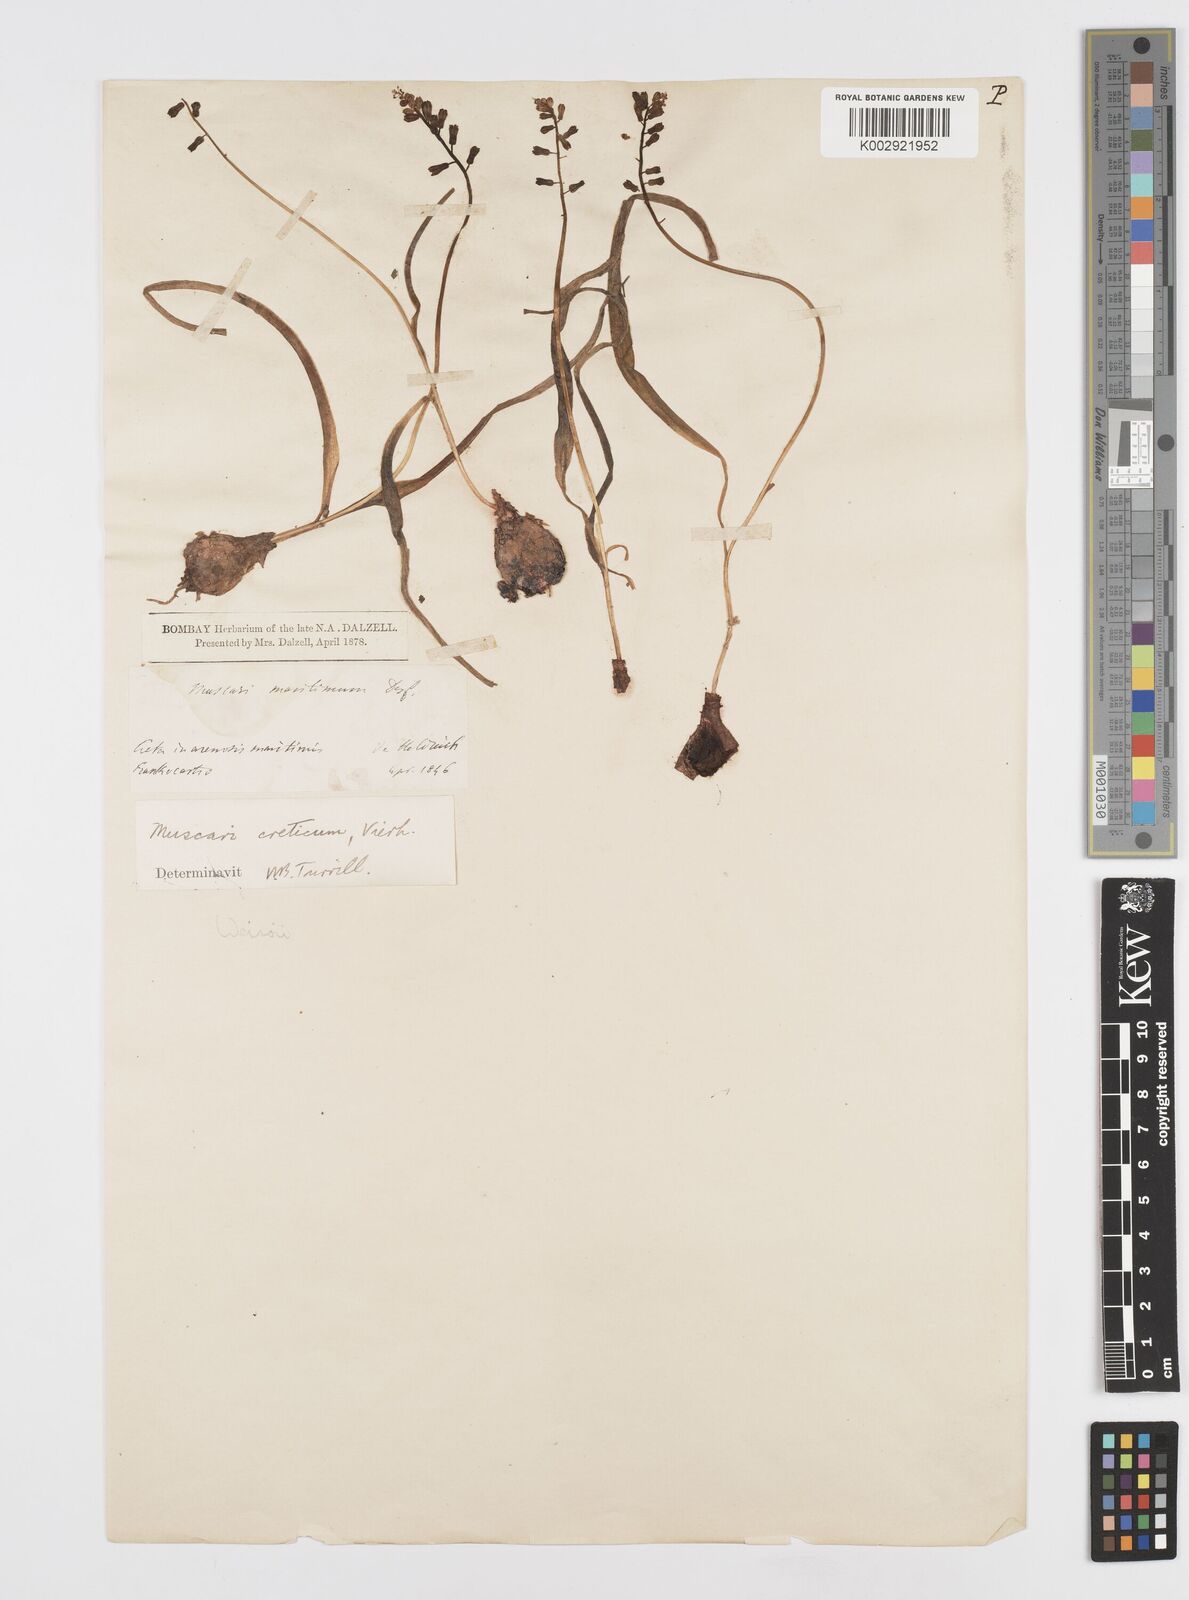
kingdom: Animalia
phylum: Mollusca
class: Cephalopoda
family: Neocomitidae
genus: Leopoldia
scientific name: Leopoldia
